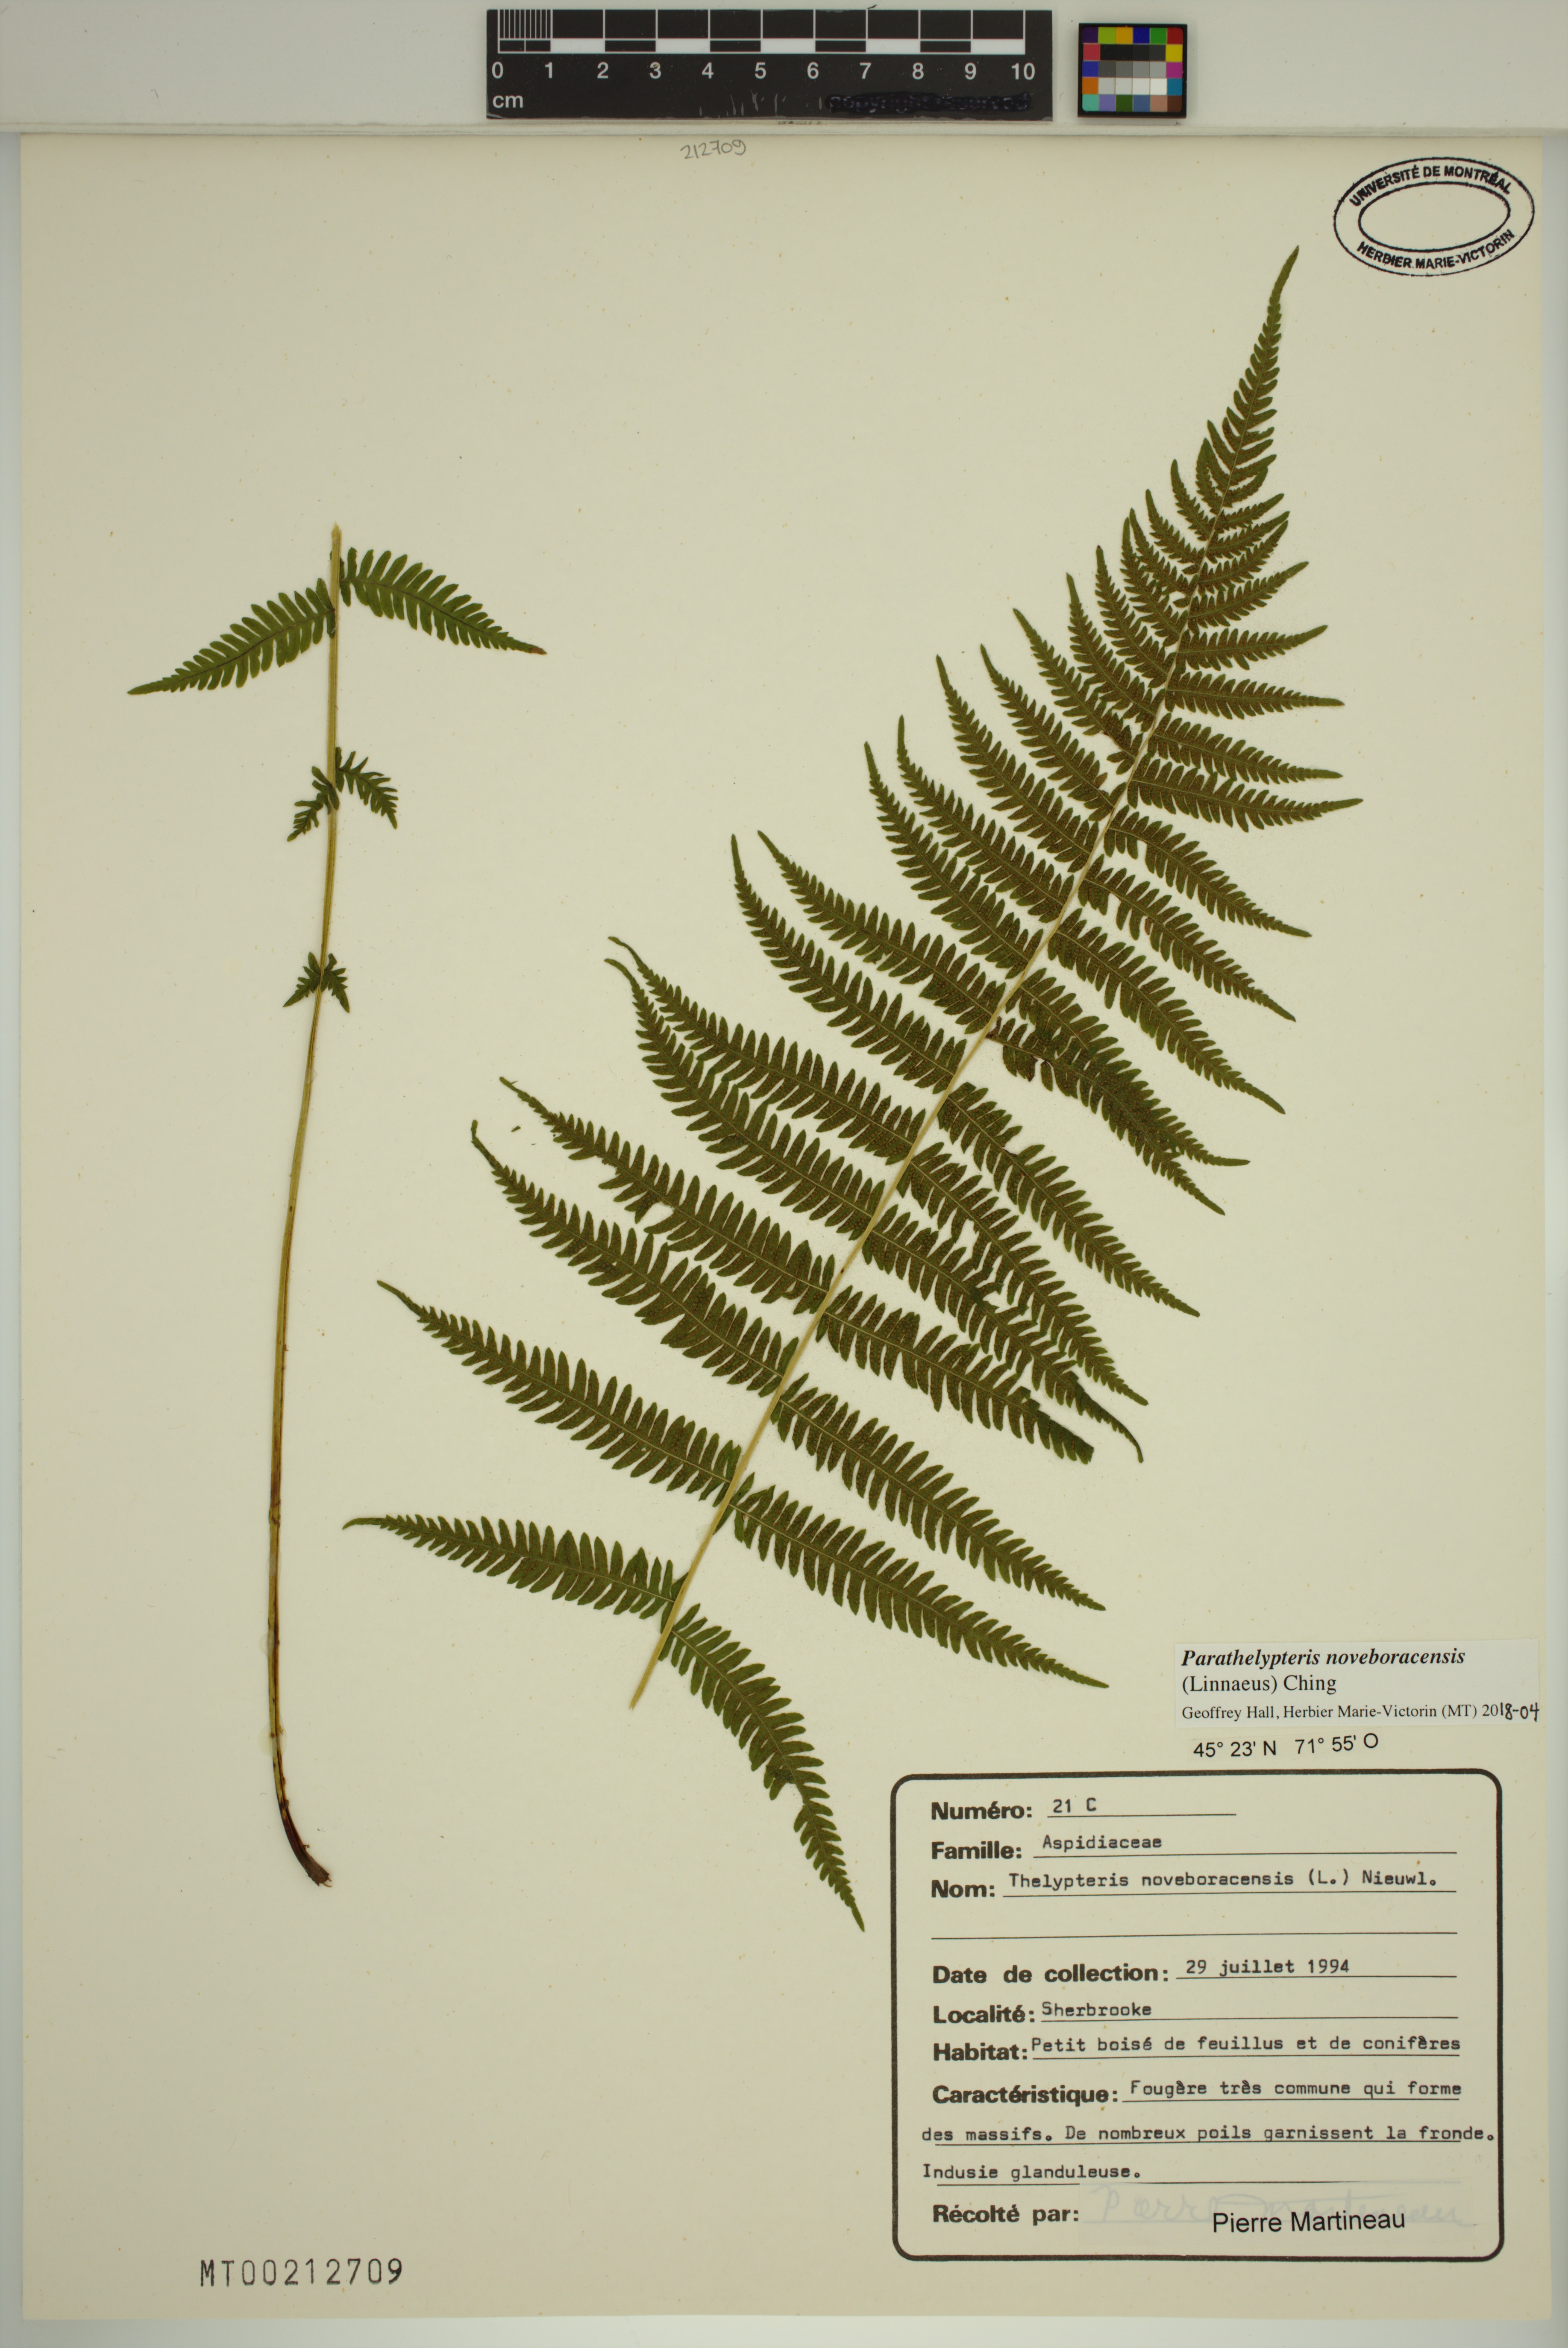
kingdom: Plantae
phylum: Tracheophyta
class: Polypodiopsida
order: Polypodiales
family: Thelypteridaceae
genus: Amauropelta
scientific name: Amauropelta noveboracensis
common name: New york fern
